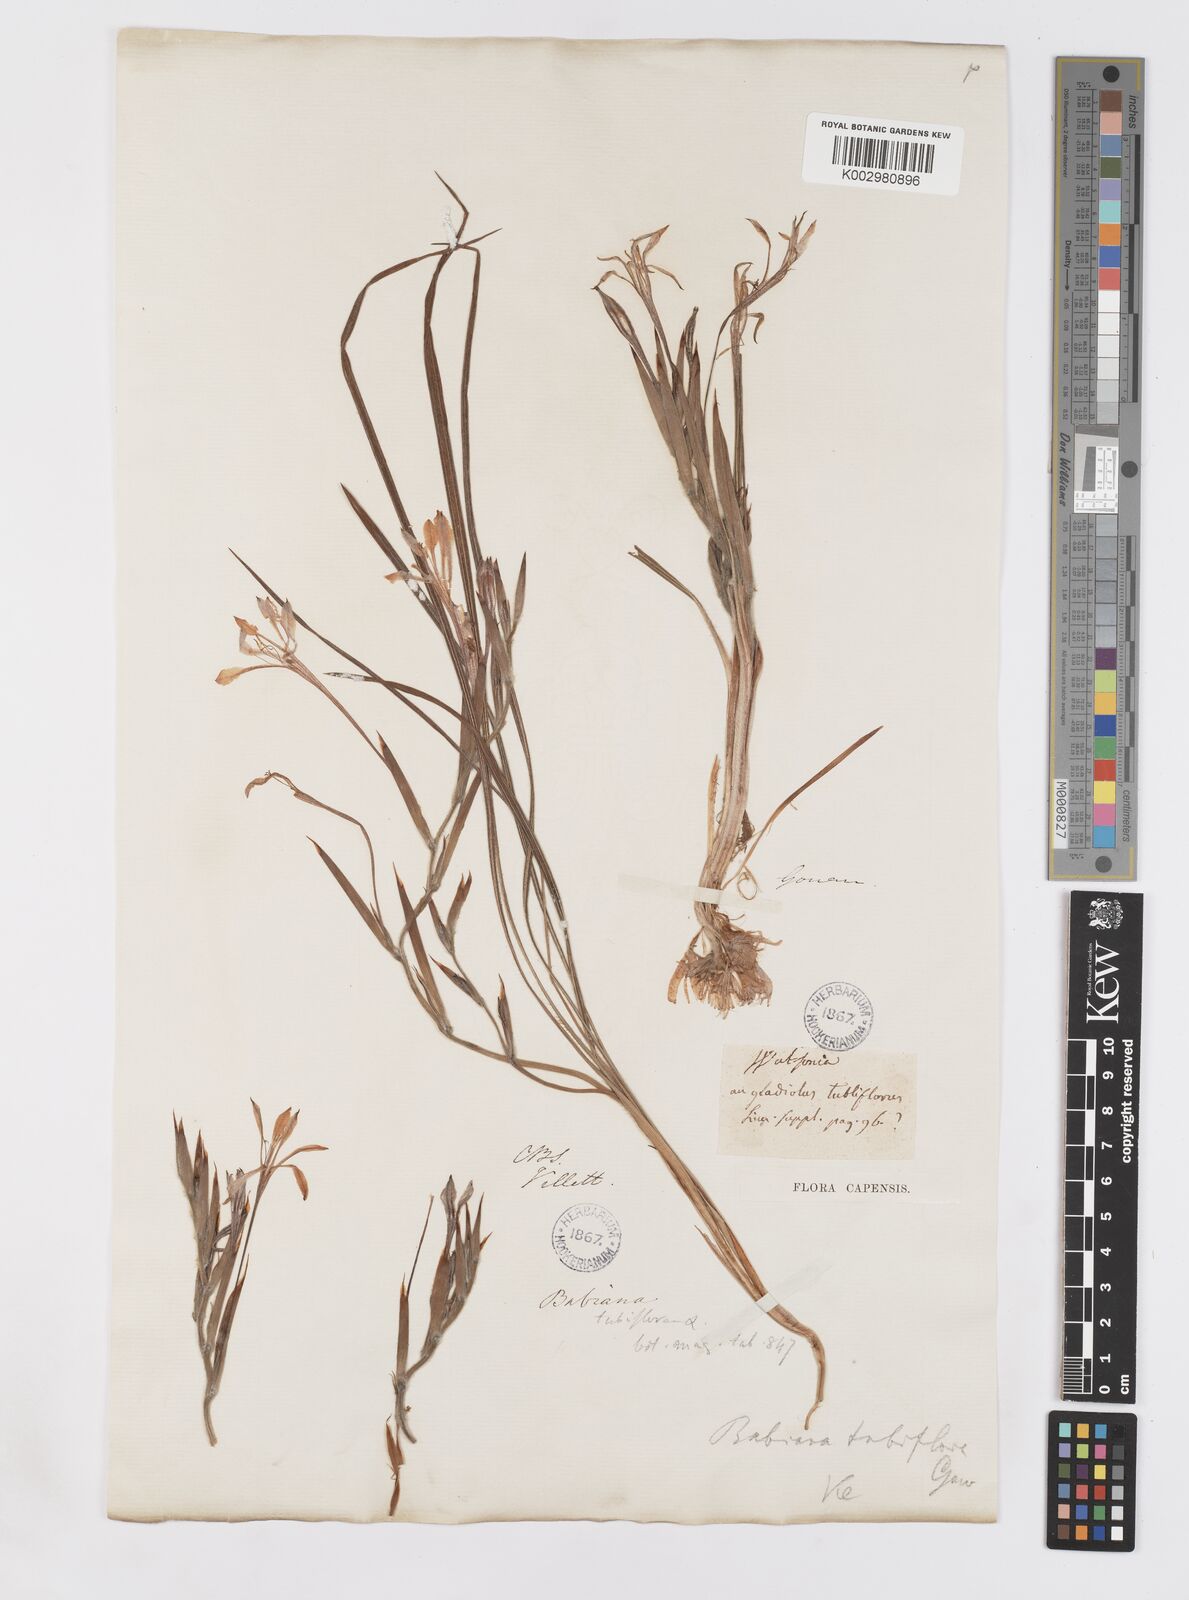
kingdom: Plantae
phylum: Tracheophyta
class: Liliopsida
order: Asparagales
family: Iridaceae
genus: Babiana
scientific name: Babiana tubiflora
